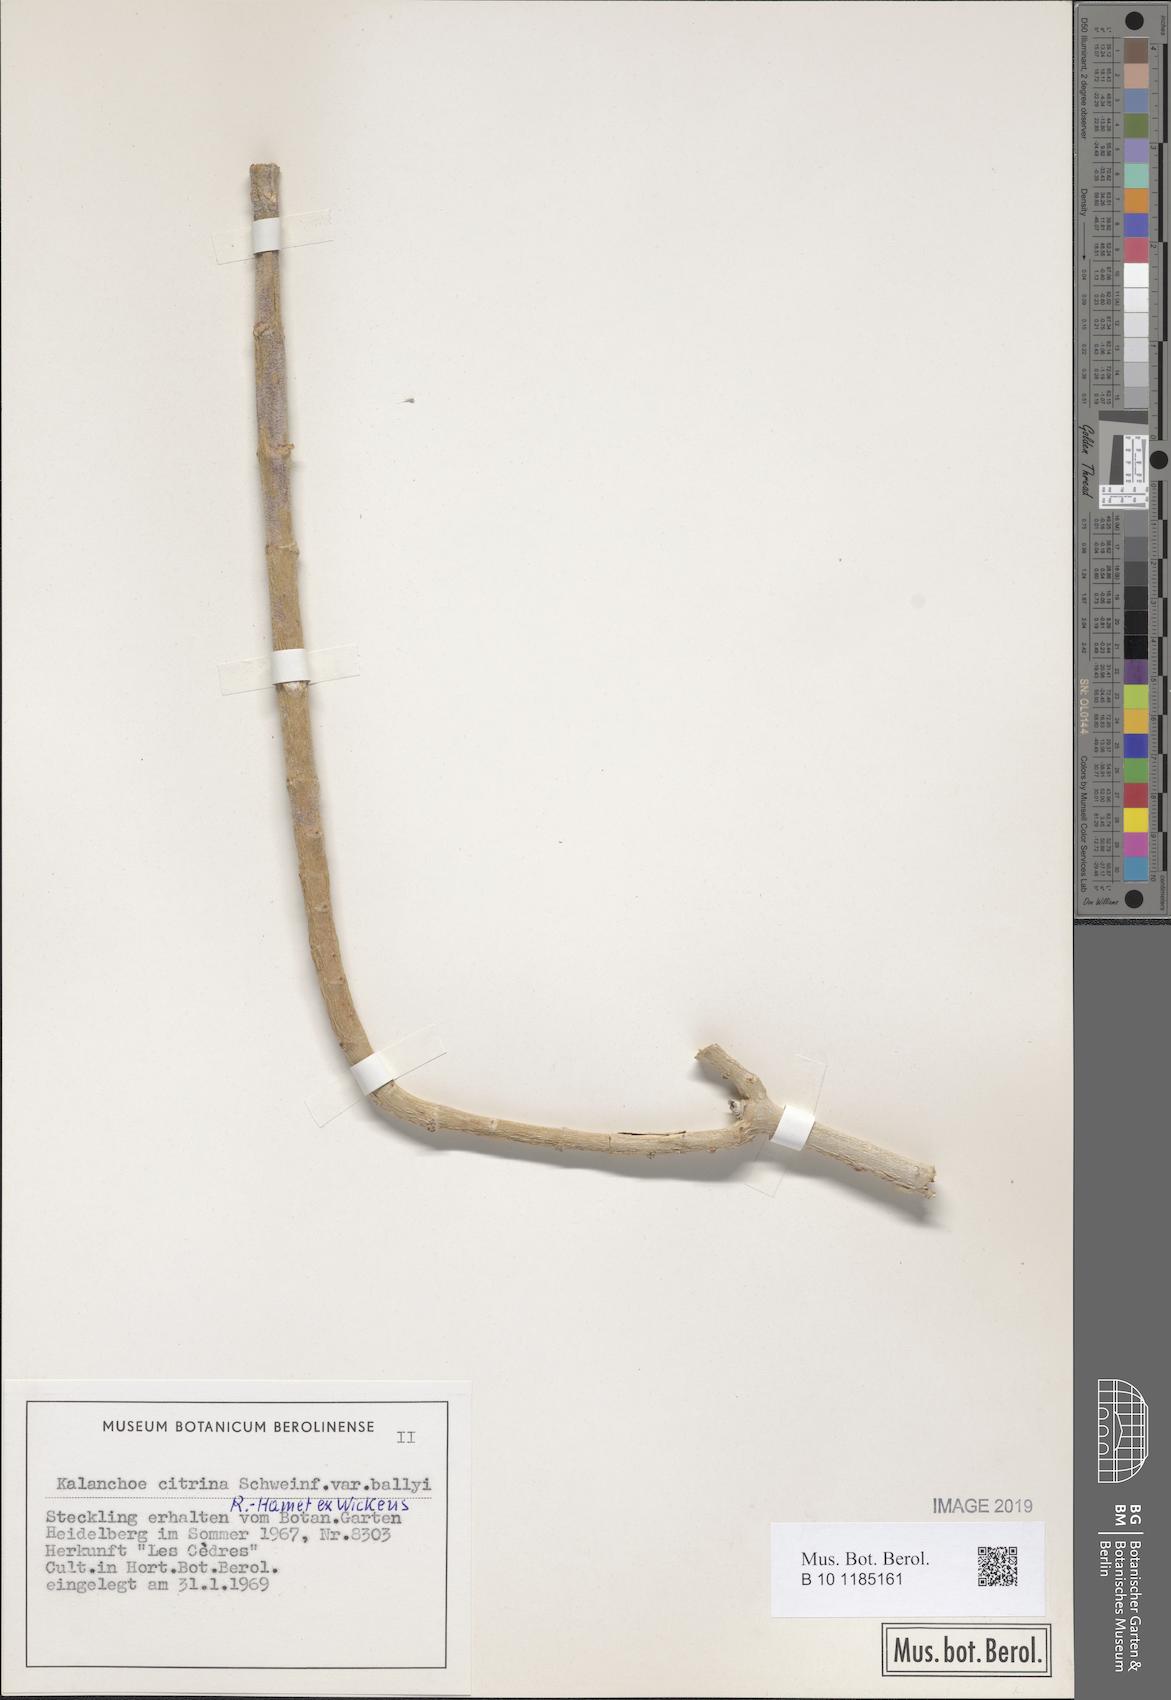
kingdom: Plantae
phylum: Tracheophyta
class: Magnoliopsida
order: Saxifragales
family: Crassulaceae
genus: Kalanchoe
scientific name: Kalanchoe citrina
